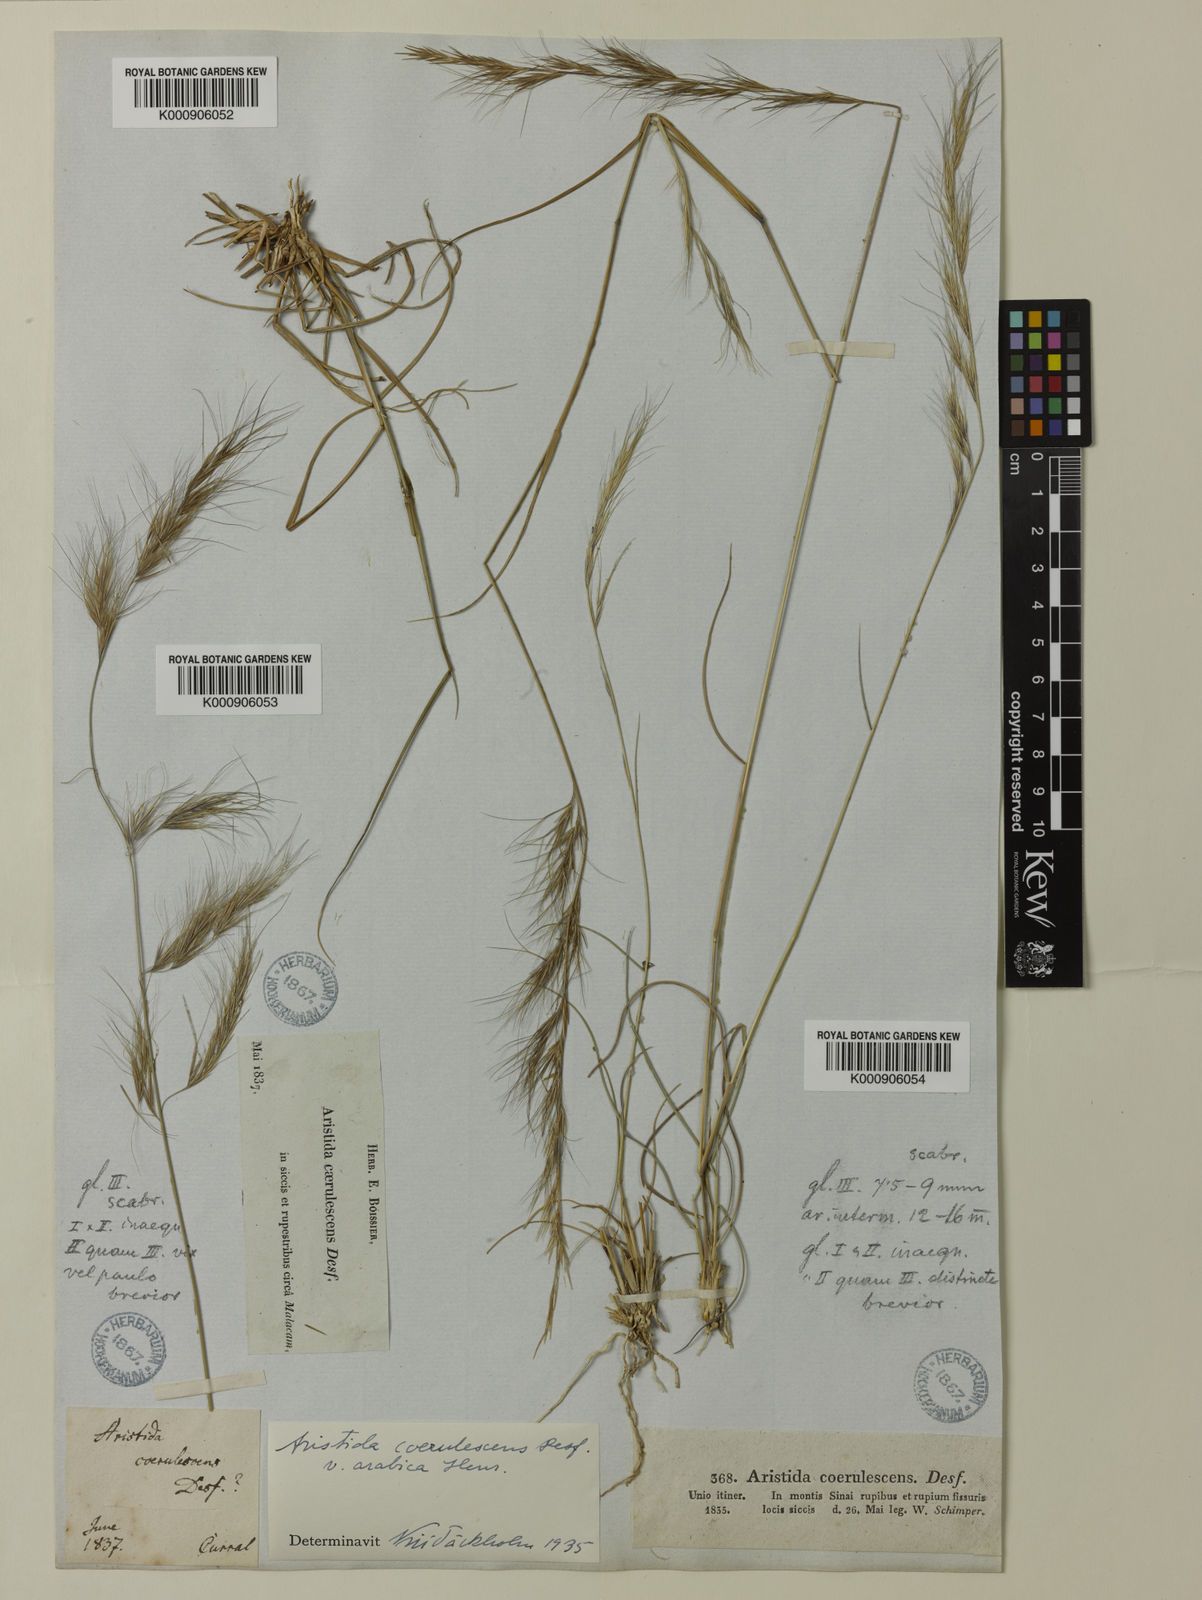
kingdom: Plantae
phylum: Tracheophyta
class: Liliopsida
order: Poales
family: Poaceae
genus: Aristida
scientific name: Aristida adscensionis
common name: Sixweeks threeawn
